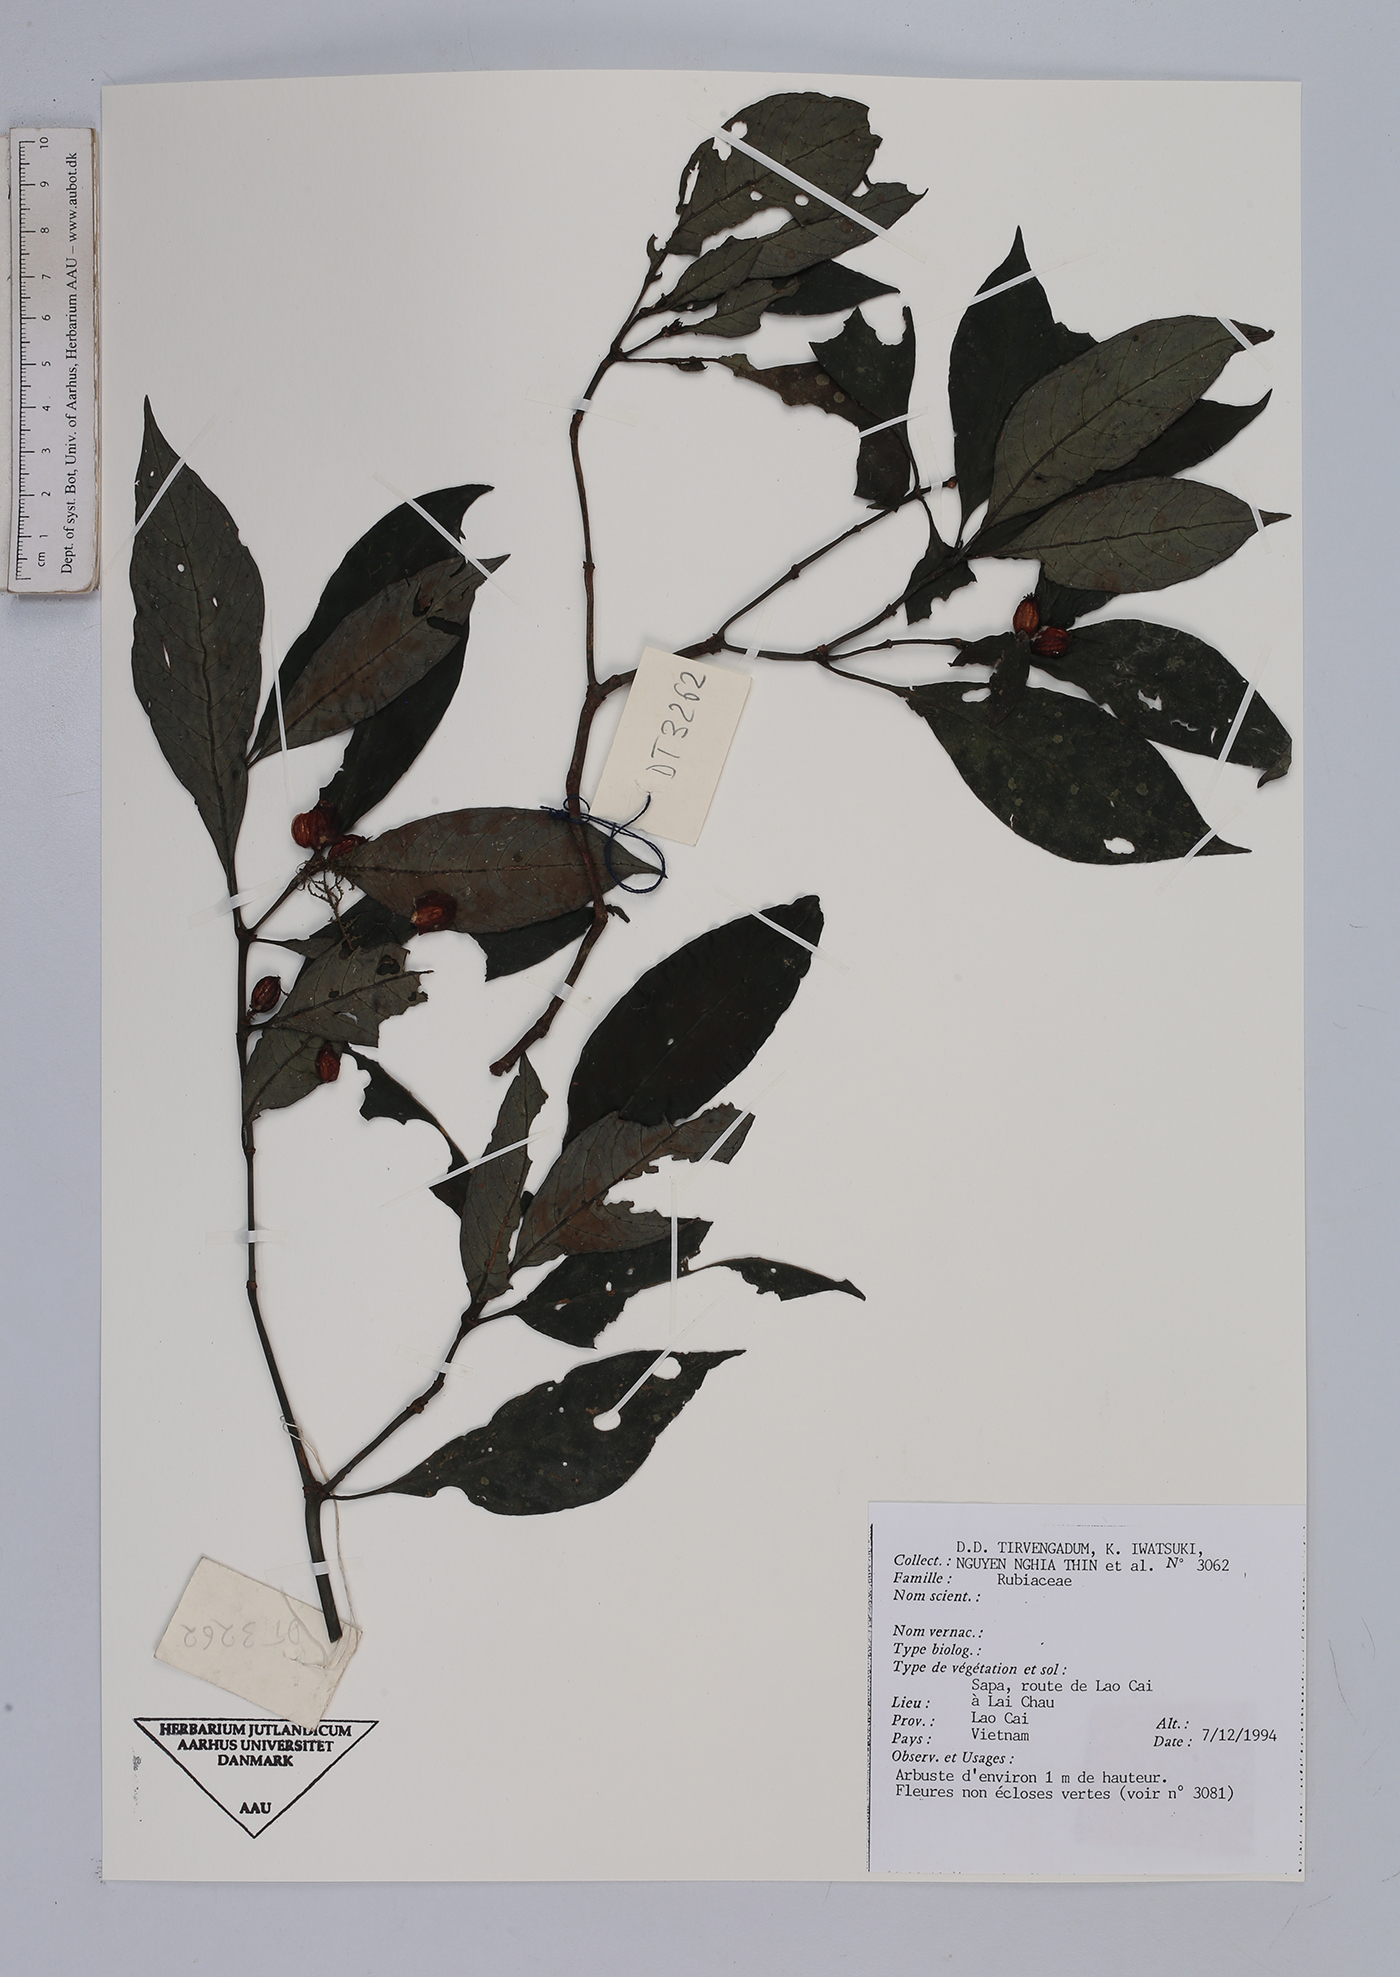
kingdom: Plantae
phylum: Tracheophyta
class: Magnoliopsida
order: Gentianales
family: Rubiaceae
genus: Urophyllum
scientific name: Urophyllum
